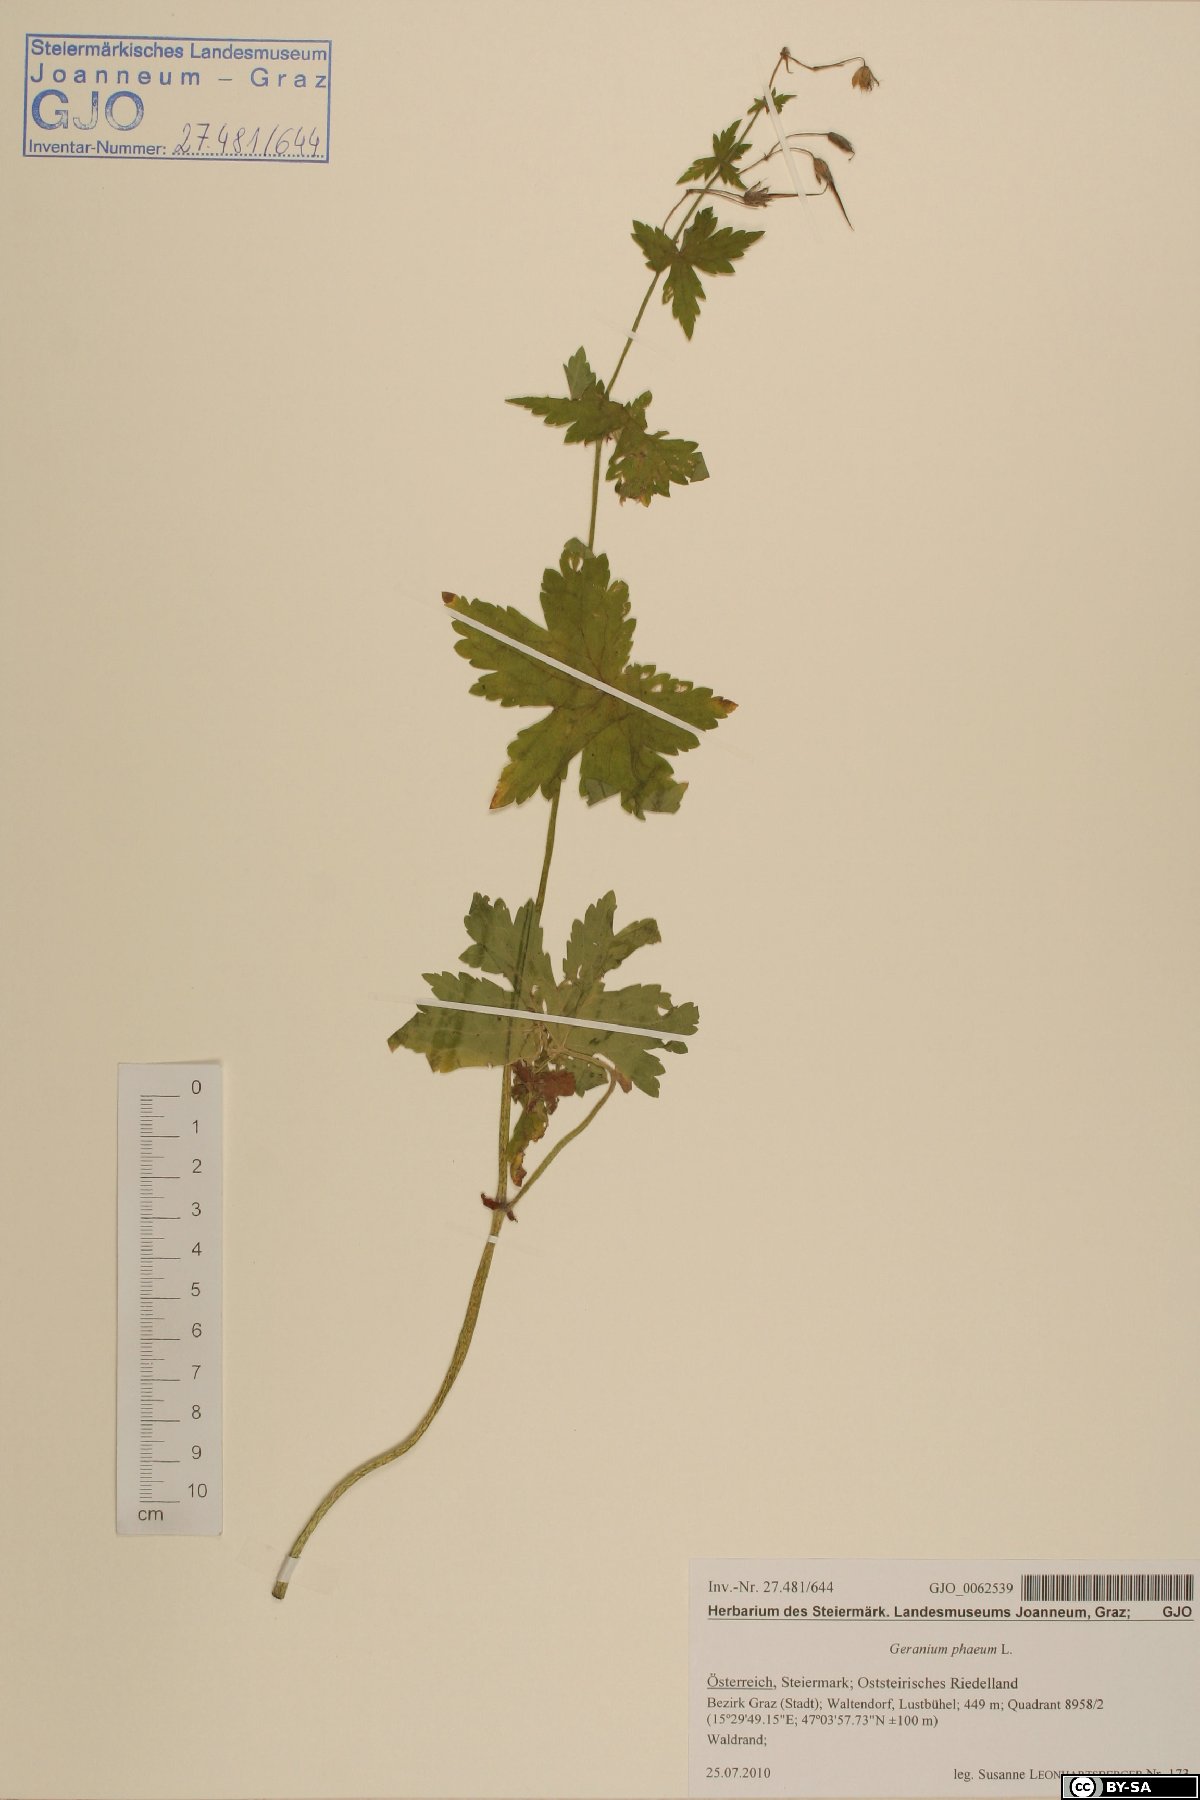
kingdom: Plantae
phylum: Tracheophyta
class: Magnoliopsida
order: Geraniales
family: Geraniaceae
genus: Geranium
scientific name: Geranium phaeum
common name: Dusky crane's-bill
